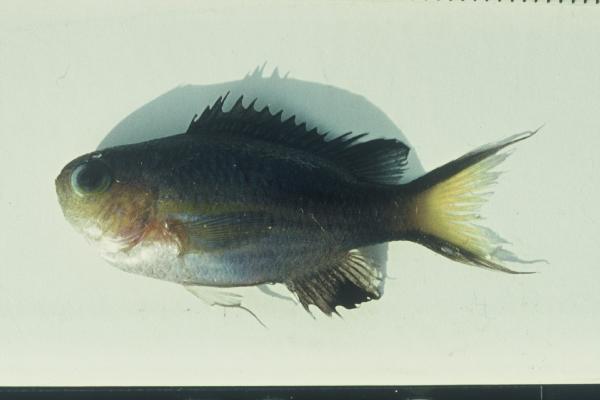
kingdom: Animalia
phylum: Chordata
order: Perciformes
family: Pomacentridae
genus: Chromis
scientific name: Chromis nigrura
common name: Blacktail chromis
